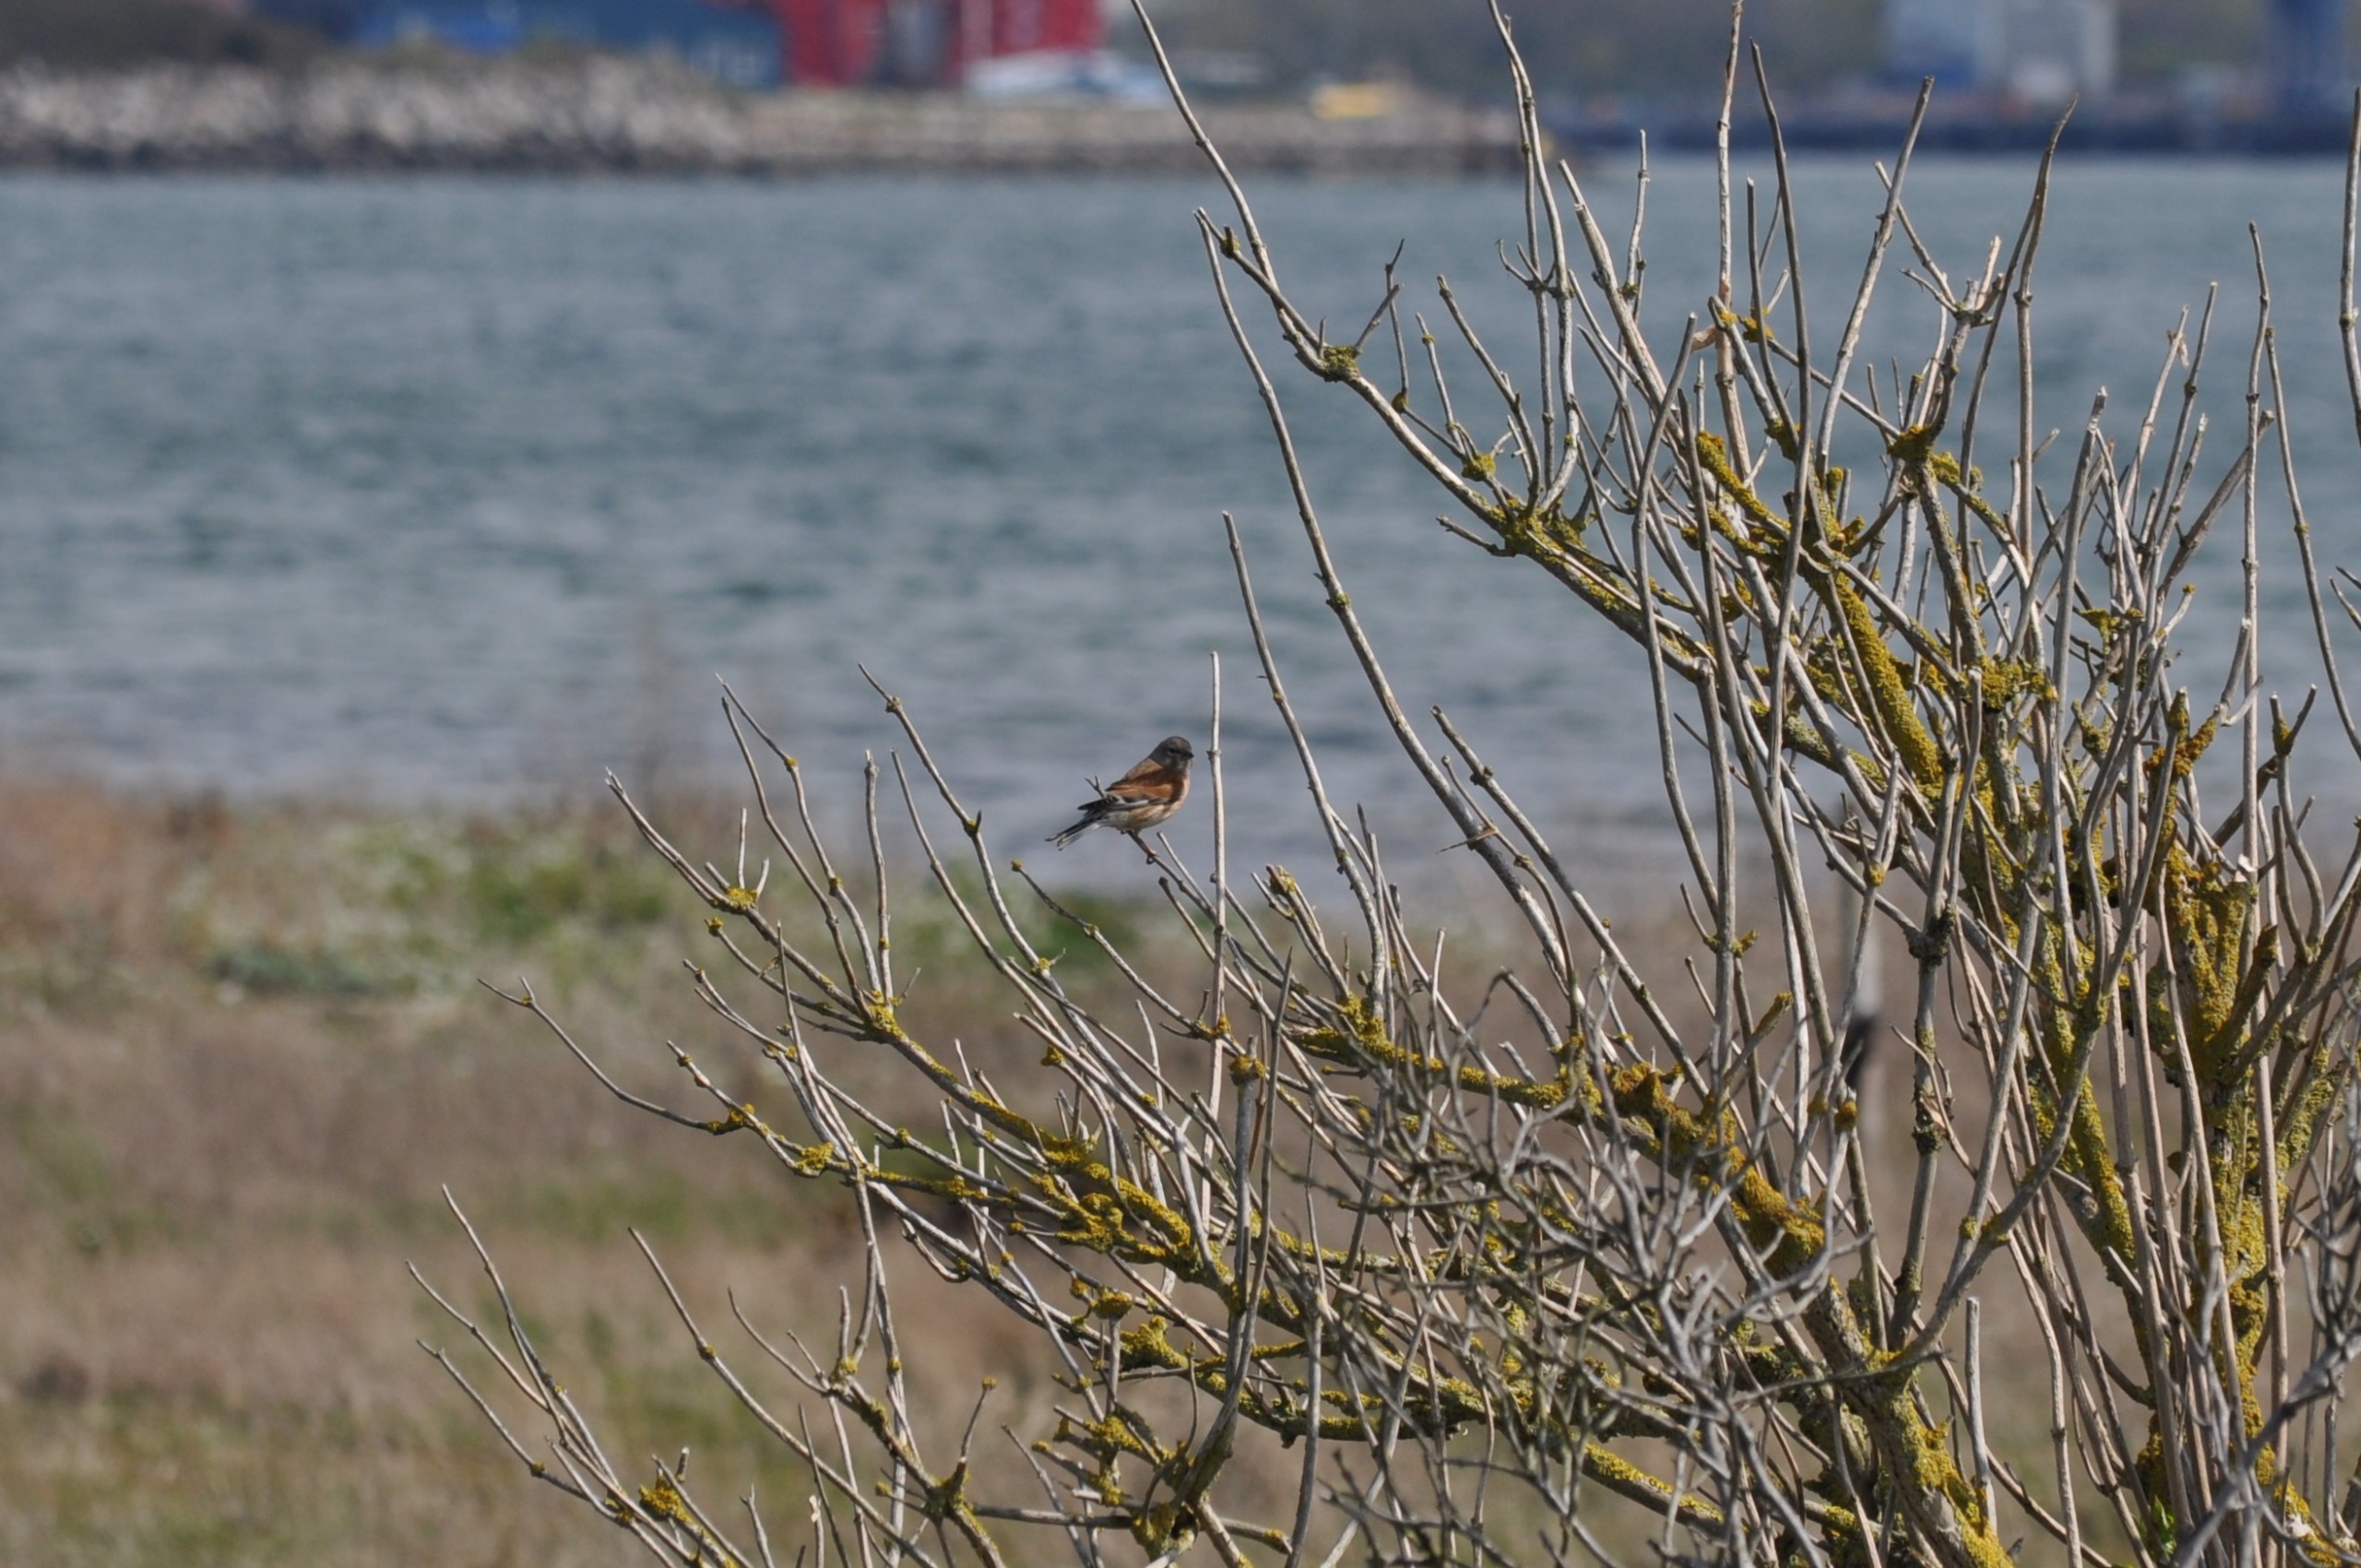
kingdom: Animalia
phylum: Chordata
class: Aves
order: Passeriformes
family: Fringillidae
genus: Linaria
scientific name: Linaria cannabina
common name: Tornirisk
